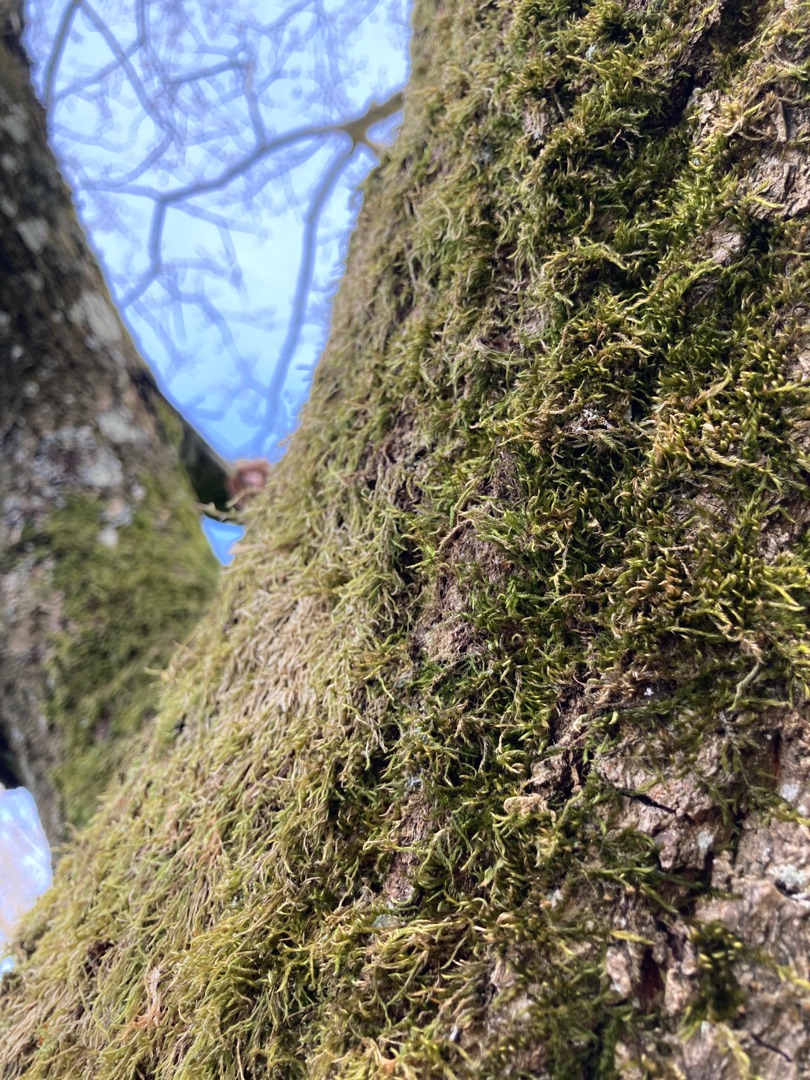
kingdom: Plantae
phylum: Bryophyta
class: Bryopsida
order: Hypnales
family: Hypnaceae
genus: Hypnum
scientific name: Hypnum
